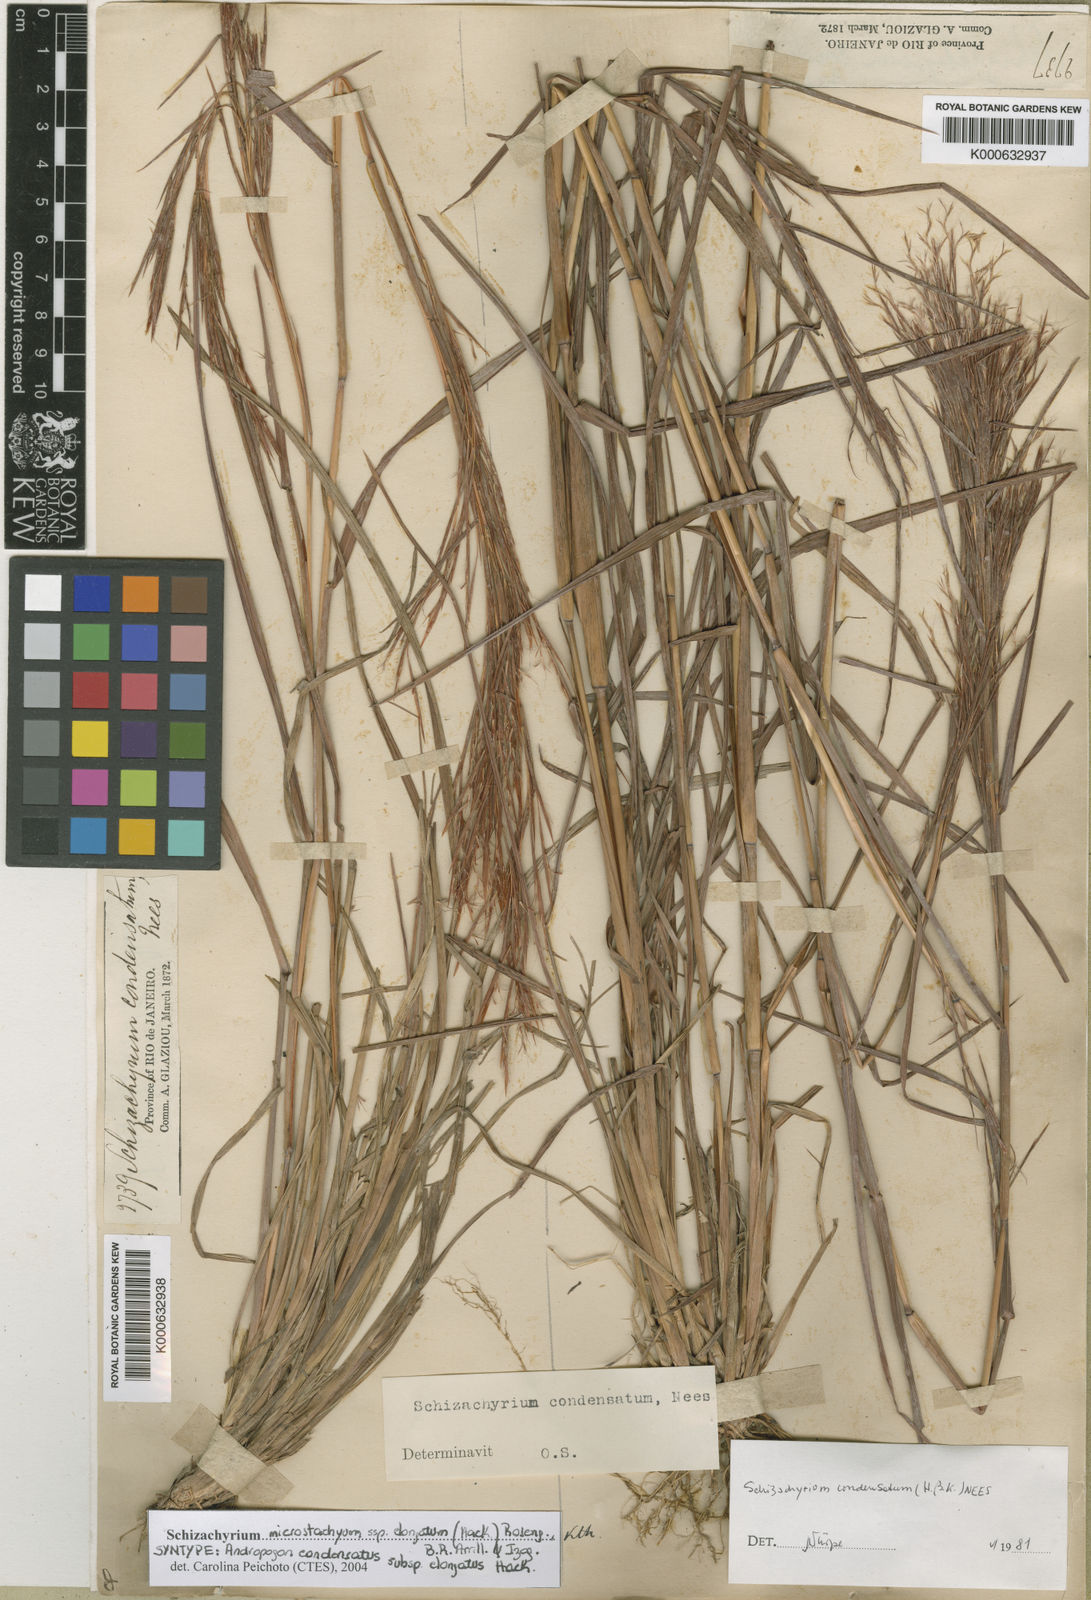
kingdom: Plantae
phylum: Tracheophyta
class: Liliopsida
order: Poales
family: Poaceae
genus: Schizachyrium
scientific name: Schizachyrium
